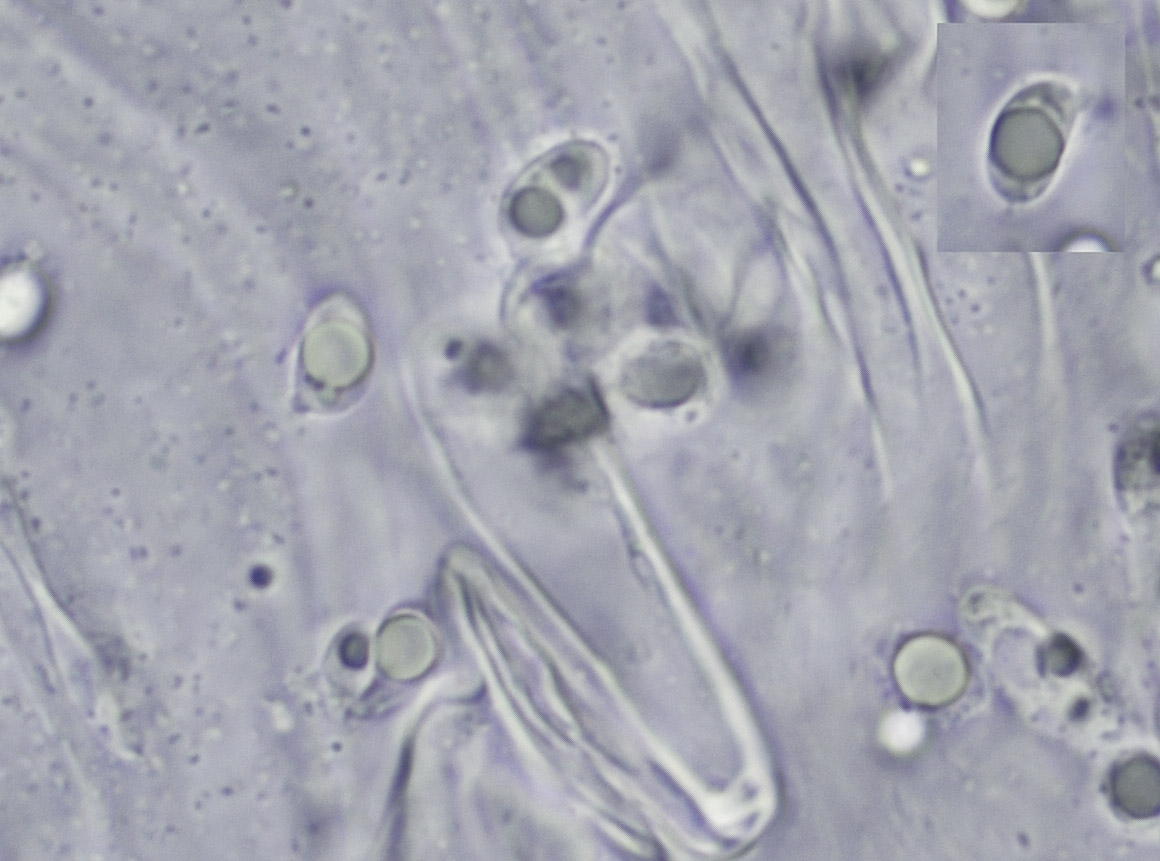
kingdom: Fungi
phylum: Basidiomycota
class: Agaricomycetes
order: Agaricales
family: Tricholomataceae
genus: Tricholoma
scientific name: Tricholoma albobrunneum
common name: kastanie-ridderhat
